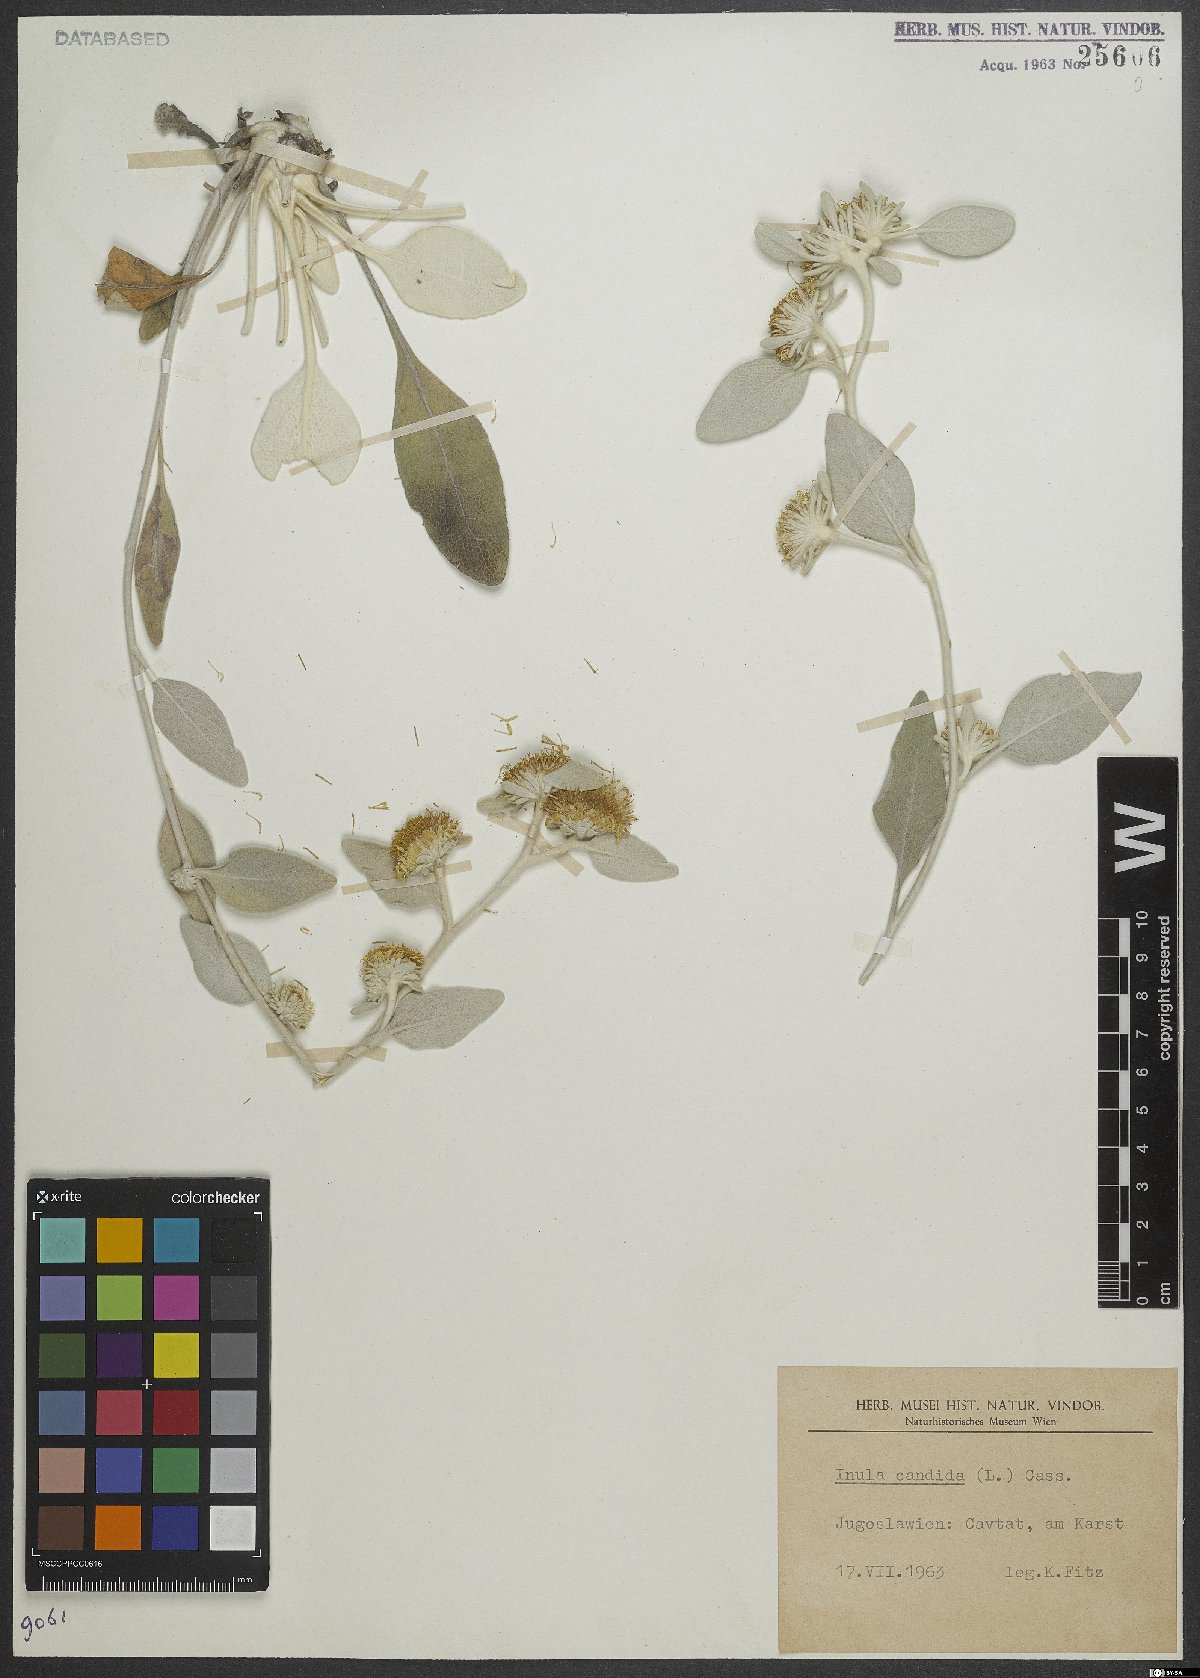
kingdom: Plantae
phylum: Tracheophyta
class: Magnoliopsida
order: Asterales
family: Asteraceae
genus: Pentanema
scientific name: Pentanema verbascifolium
